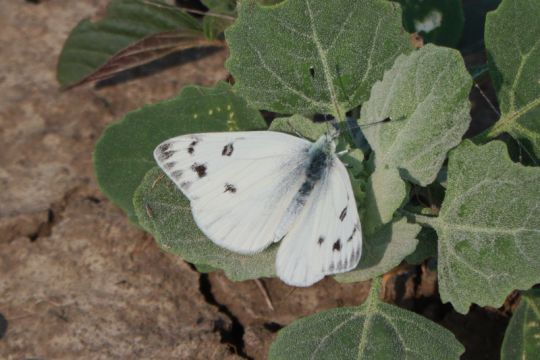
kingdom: Animalia
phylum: Arthropoda
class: Insecta
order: Lepidoptera
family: Pieridae
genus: Pontia
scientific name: Pontia protodice
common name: Checkered White
